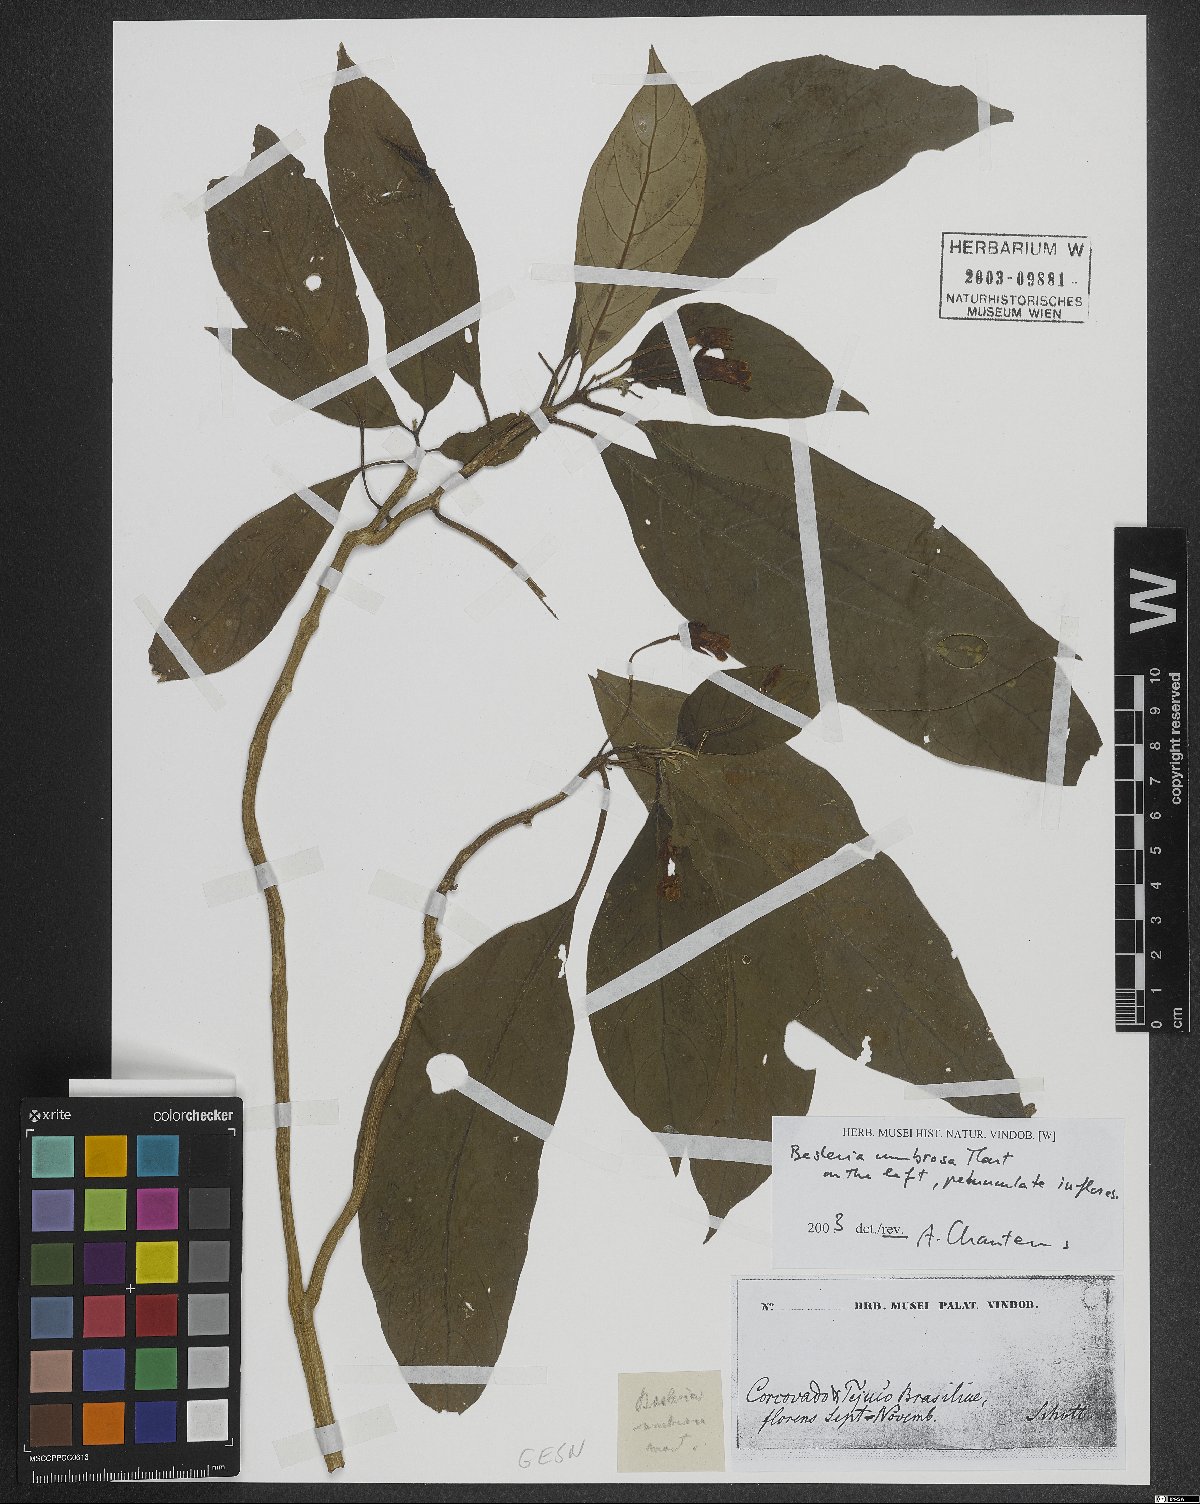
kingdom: Plantae
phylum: Tracheophyta
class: Magnoliopsida
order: Lamiales
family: Gesneriaceae
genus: Besleria
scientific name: Besleria umbrosa
